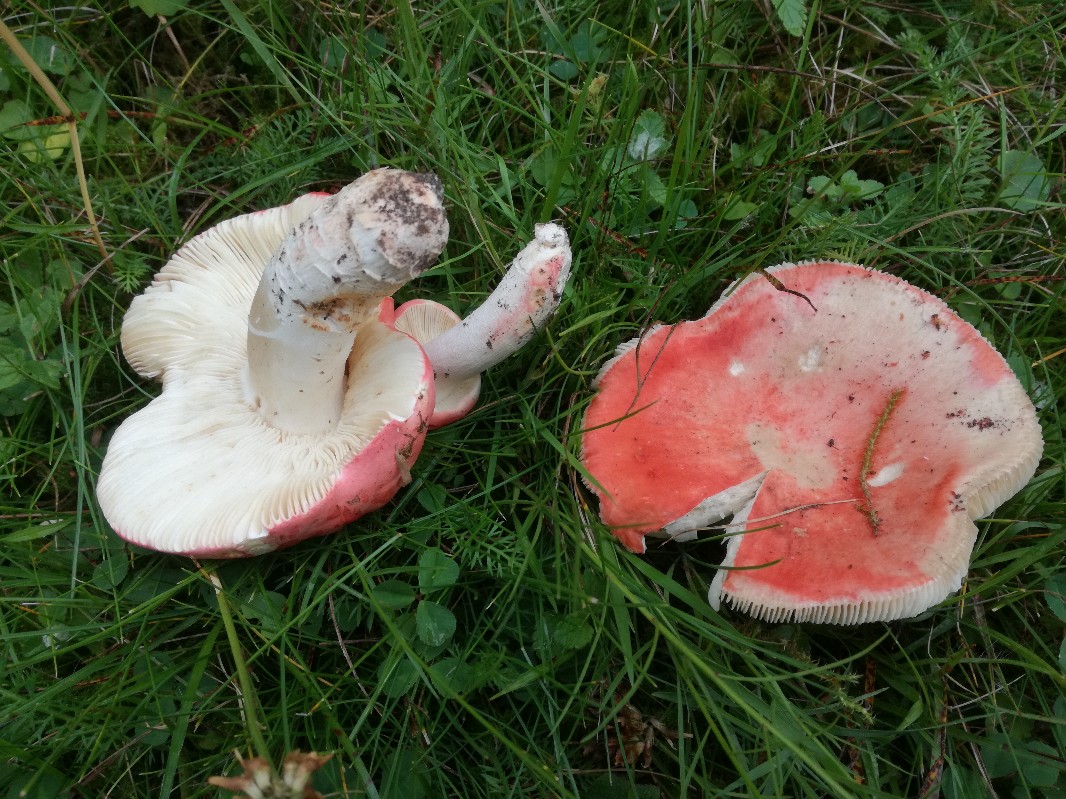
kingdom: Fungi
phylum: Basidiomycota
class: Agaricomycetes
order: Russulales
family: Russulaceae
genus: Russula
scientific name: Russula rosea
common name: fastkødet skørhat
